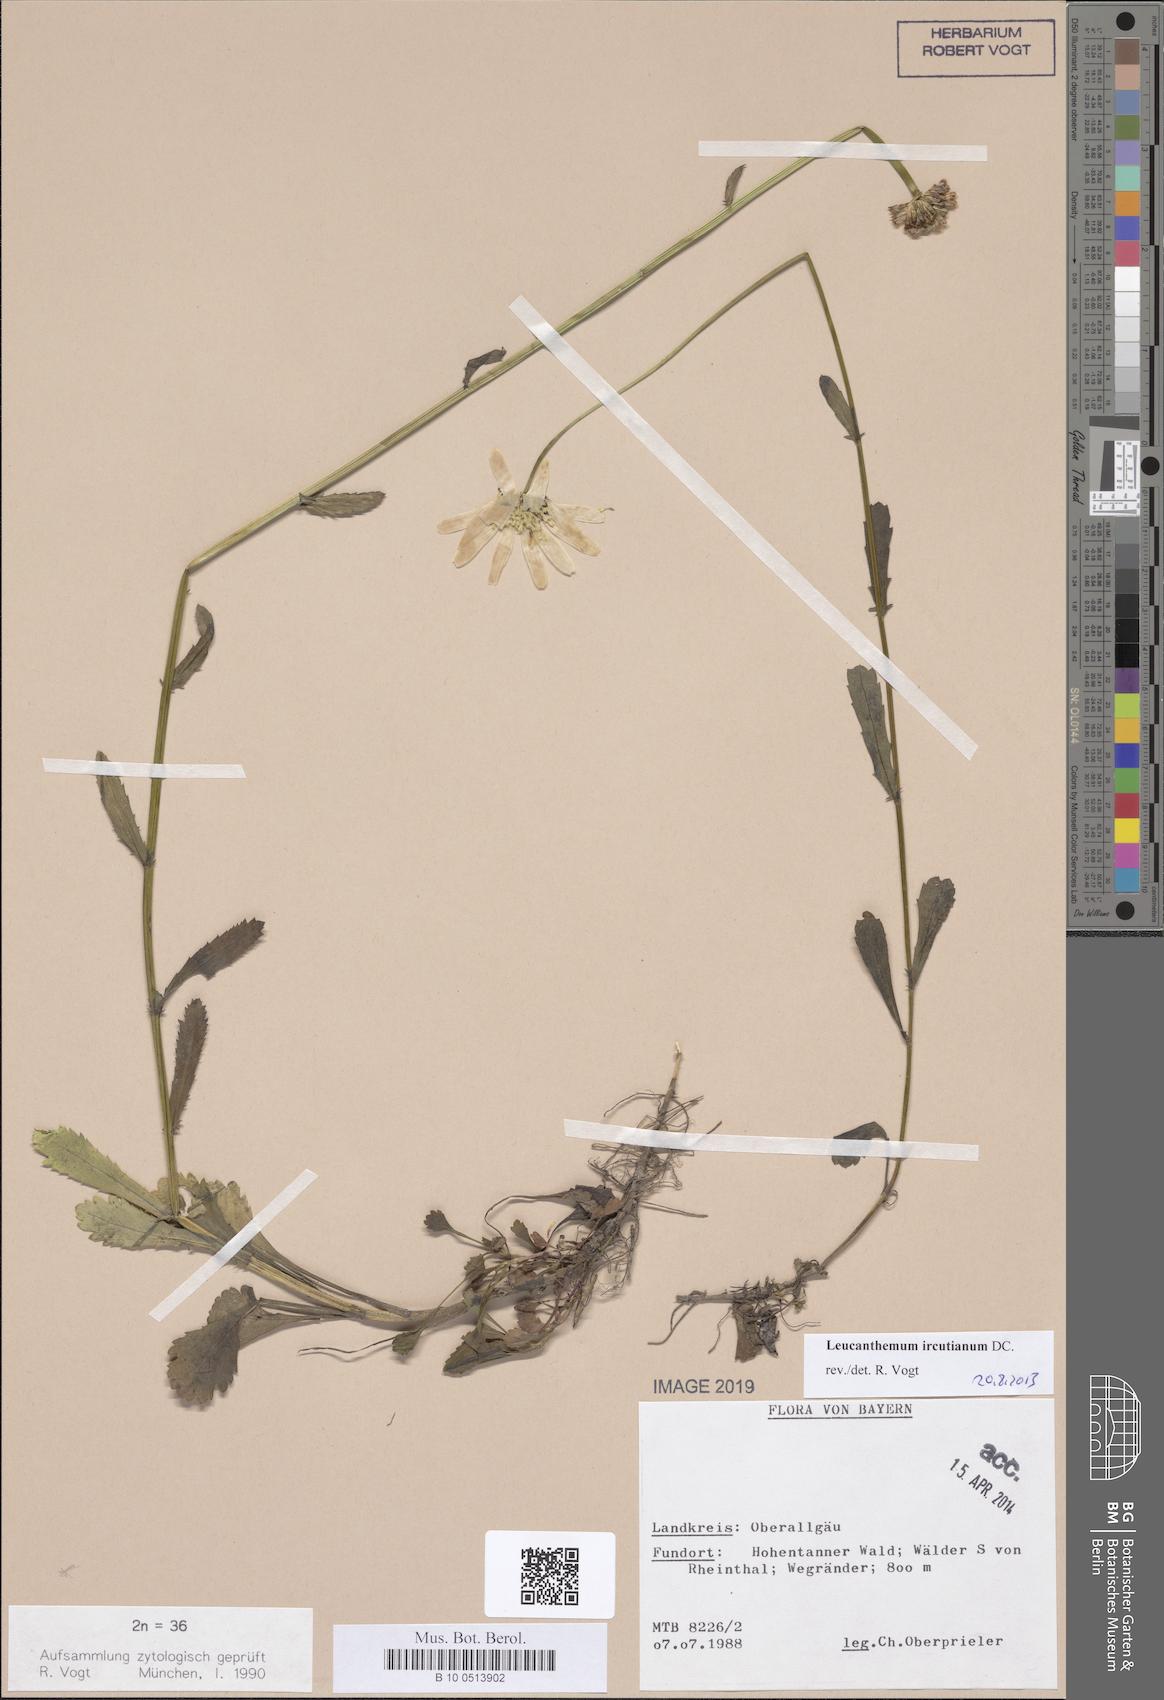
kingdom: Plantae
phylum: Tracheophyta
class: Magnoliopsida
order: Asterales
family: Asteraceae
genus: Leucanthemum
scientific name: Leucanthemum ircutianum
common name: Daisy
